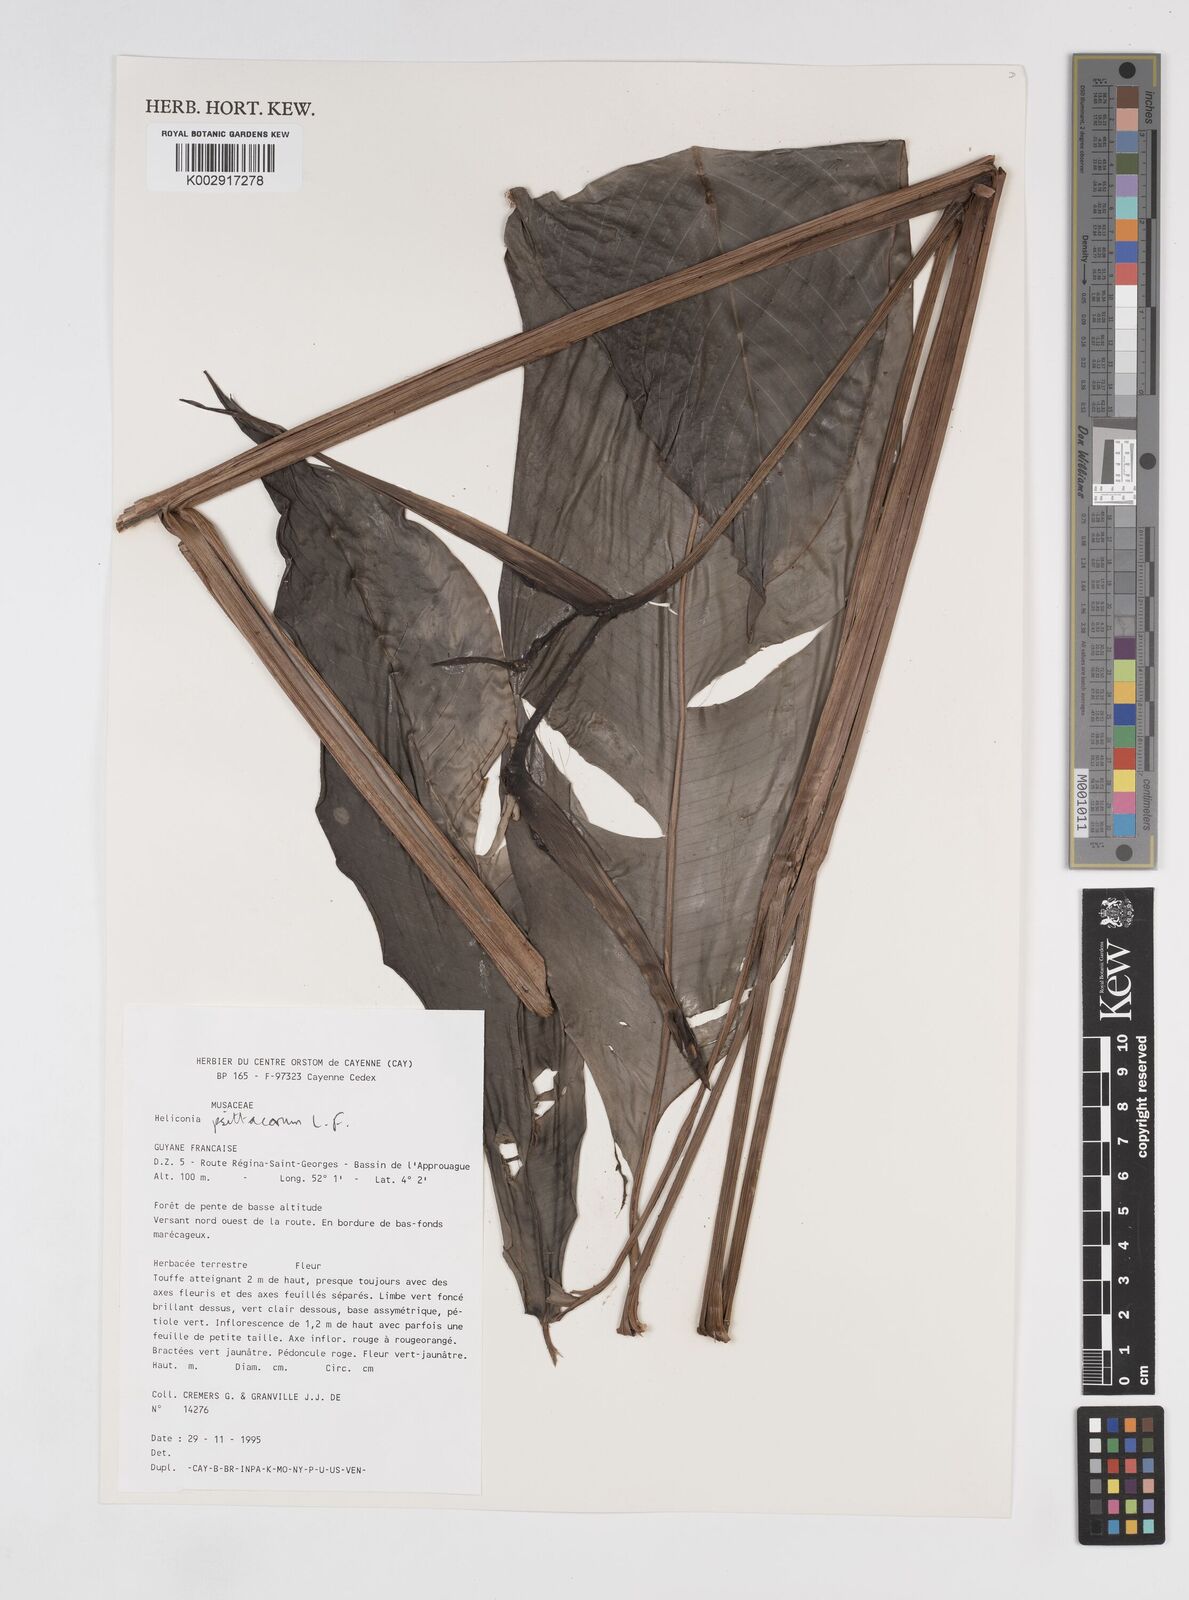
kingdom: Plantae
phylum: Tracheophyta
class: Liliopsida
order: Zingiberales
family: Heliconiaceae
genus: Heliconia
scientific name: Heliconia psittacorum
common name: Parrot's-flower
